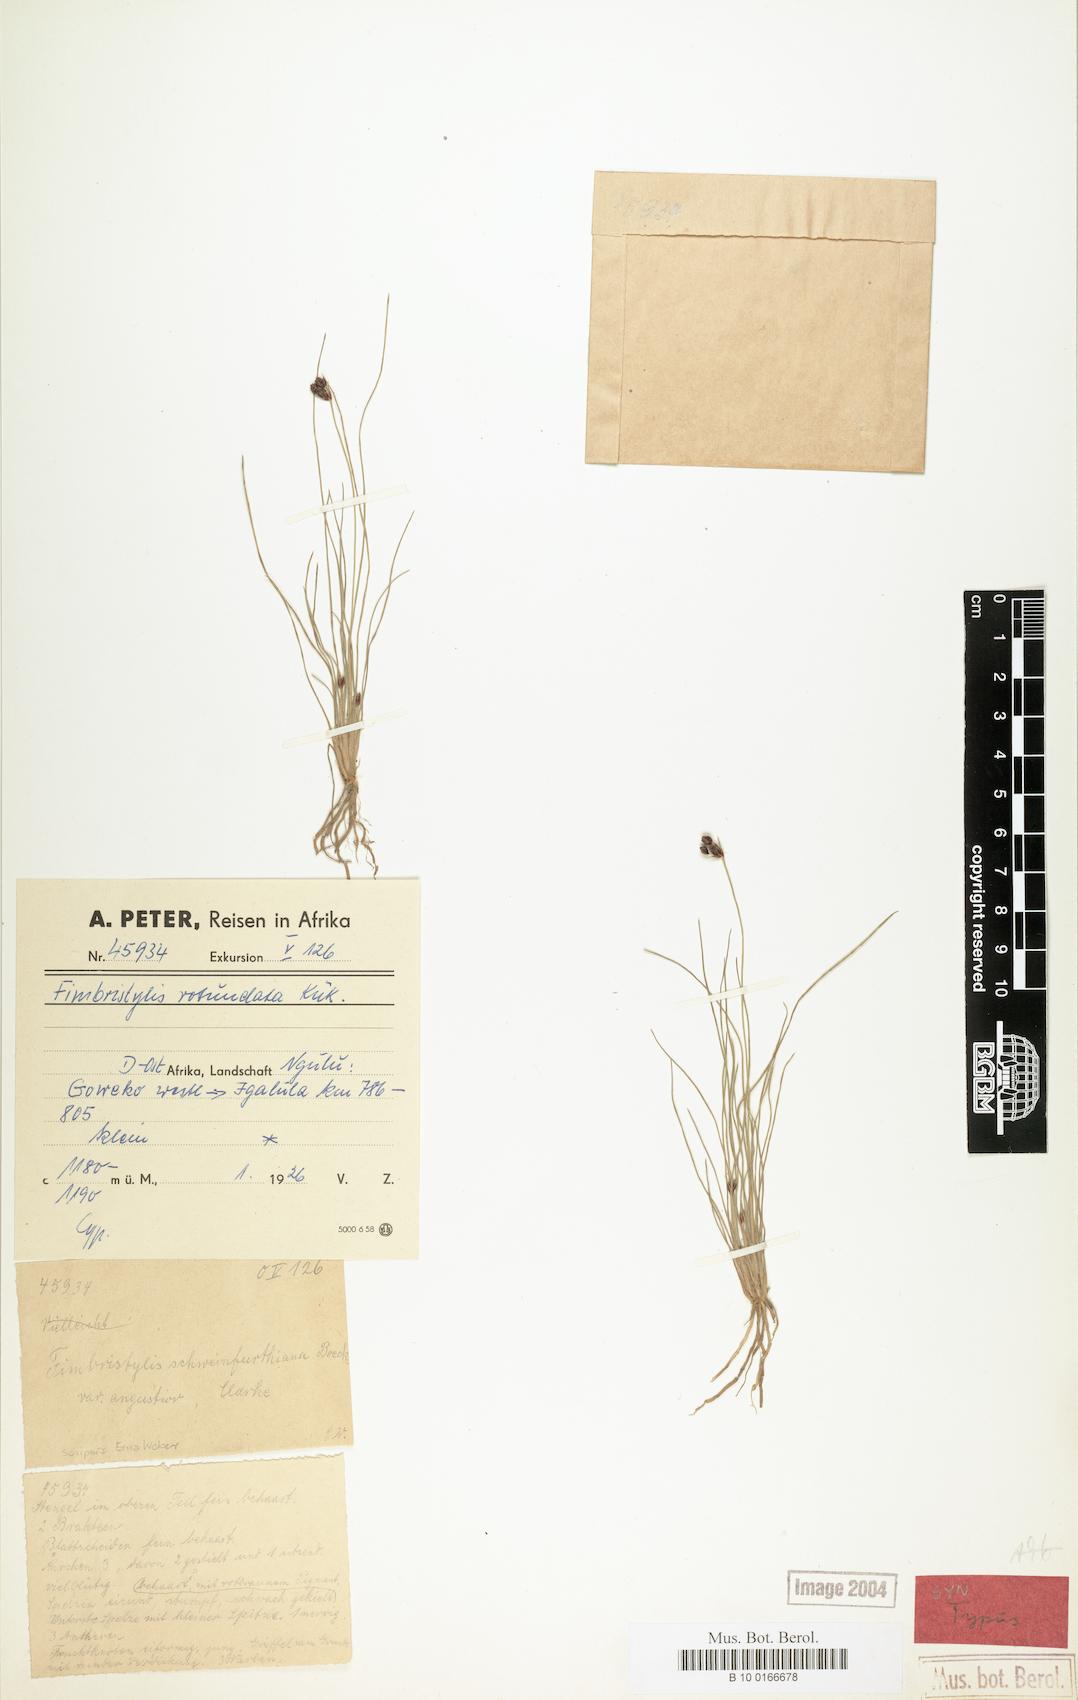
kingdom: Plantae
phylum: Tracheophyta
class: Liliopsida
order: Poales
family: Cyperaceae
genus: Bulbostylis
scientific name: Bulbostylis rotundata
